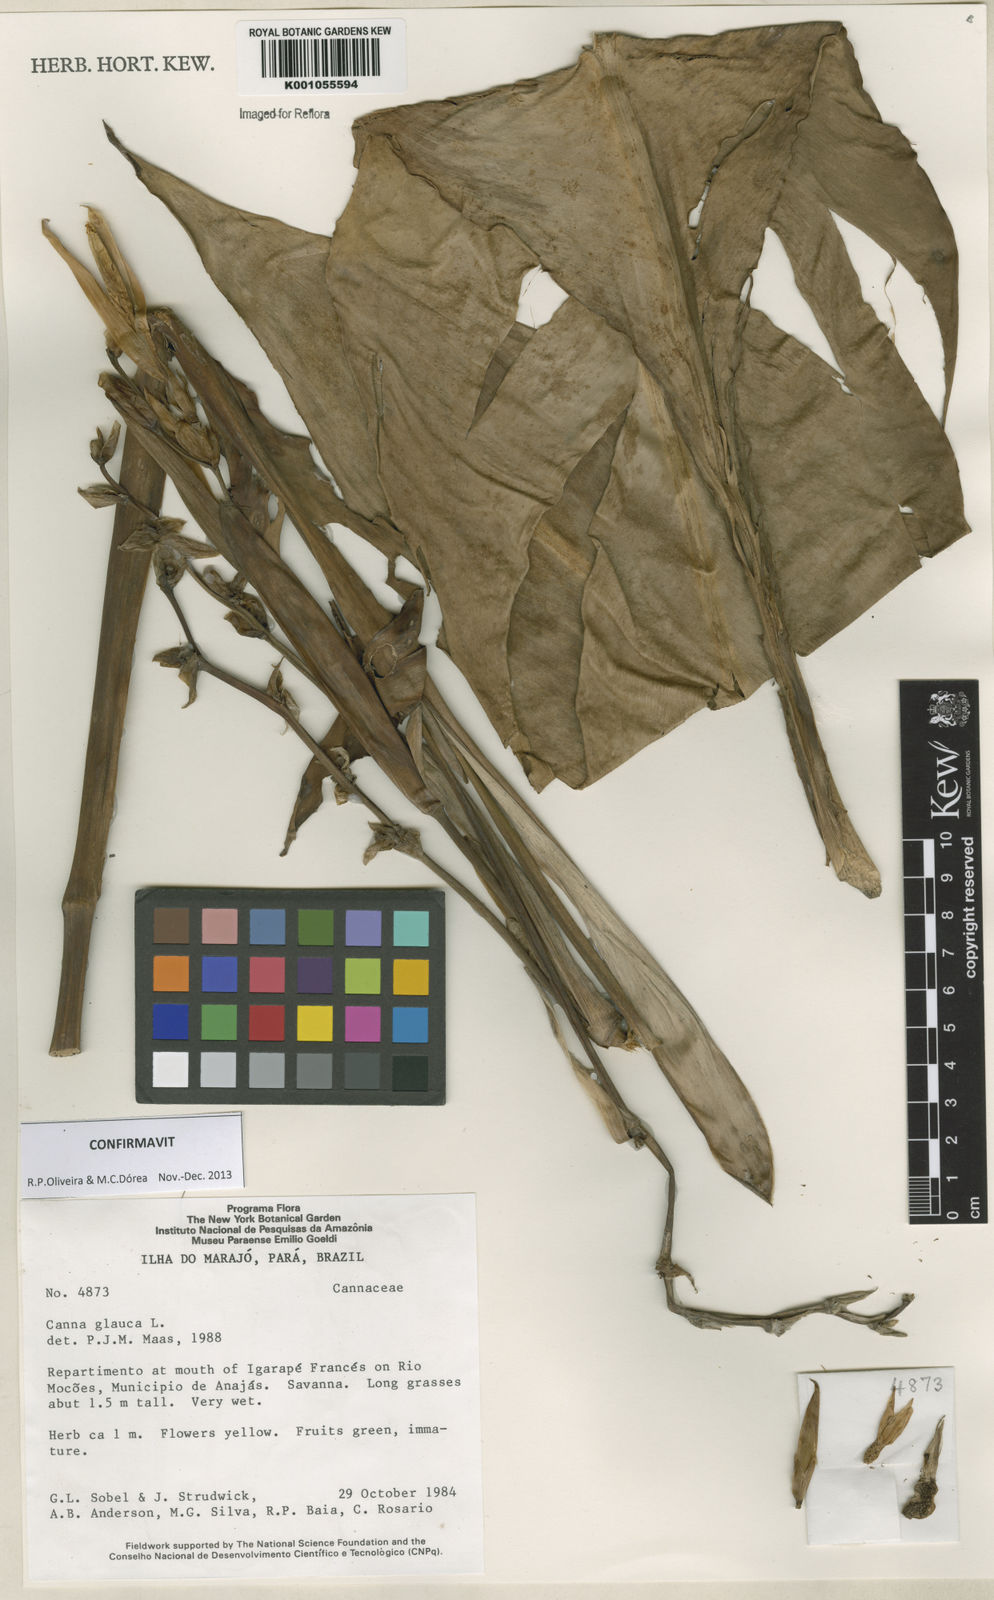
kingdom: Plantae
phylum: Tracheophyta
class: Liliopsida
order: Zingiberales
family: Cannaceae
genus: Canna
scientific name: Canna glauca
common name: Louisiana canna
